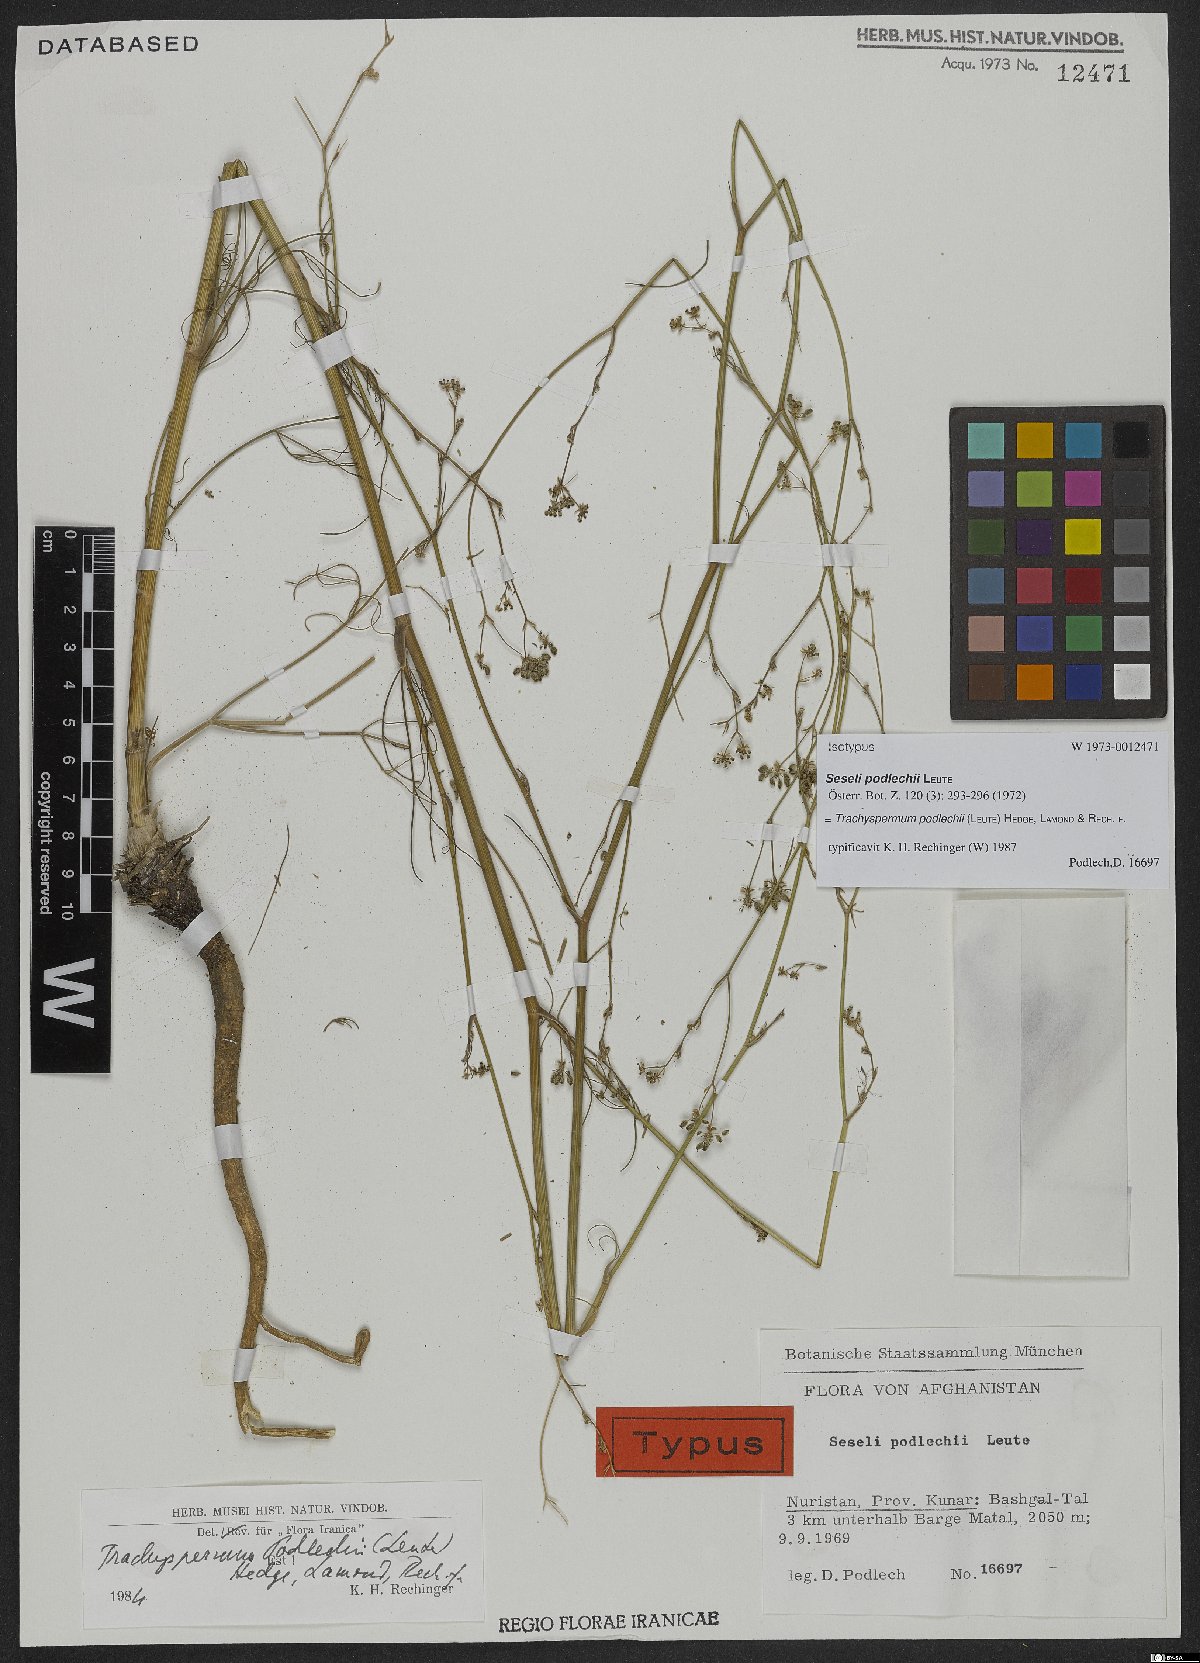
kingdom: Plantae
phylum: Tracheophyta
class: Magnoliopsida
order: Apiales
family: Apiaceae
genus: Trachyspermum
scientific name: Trachyspermum podlechii
